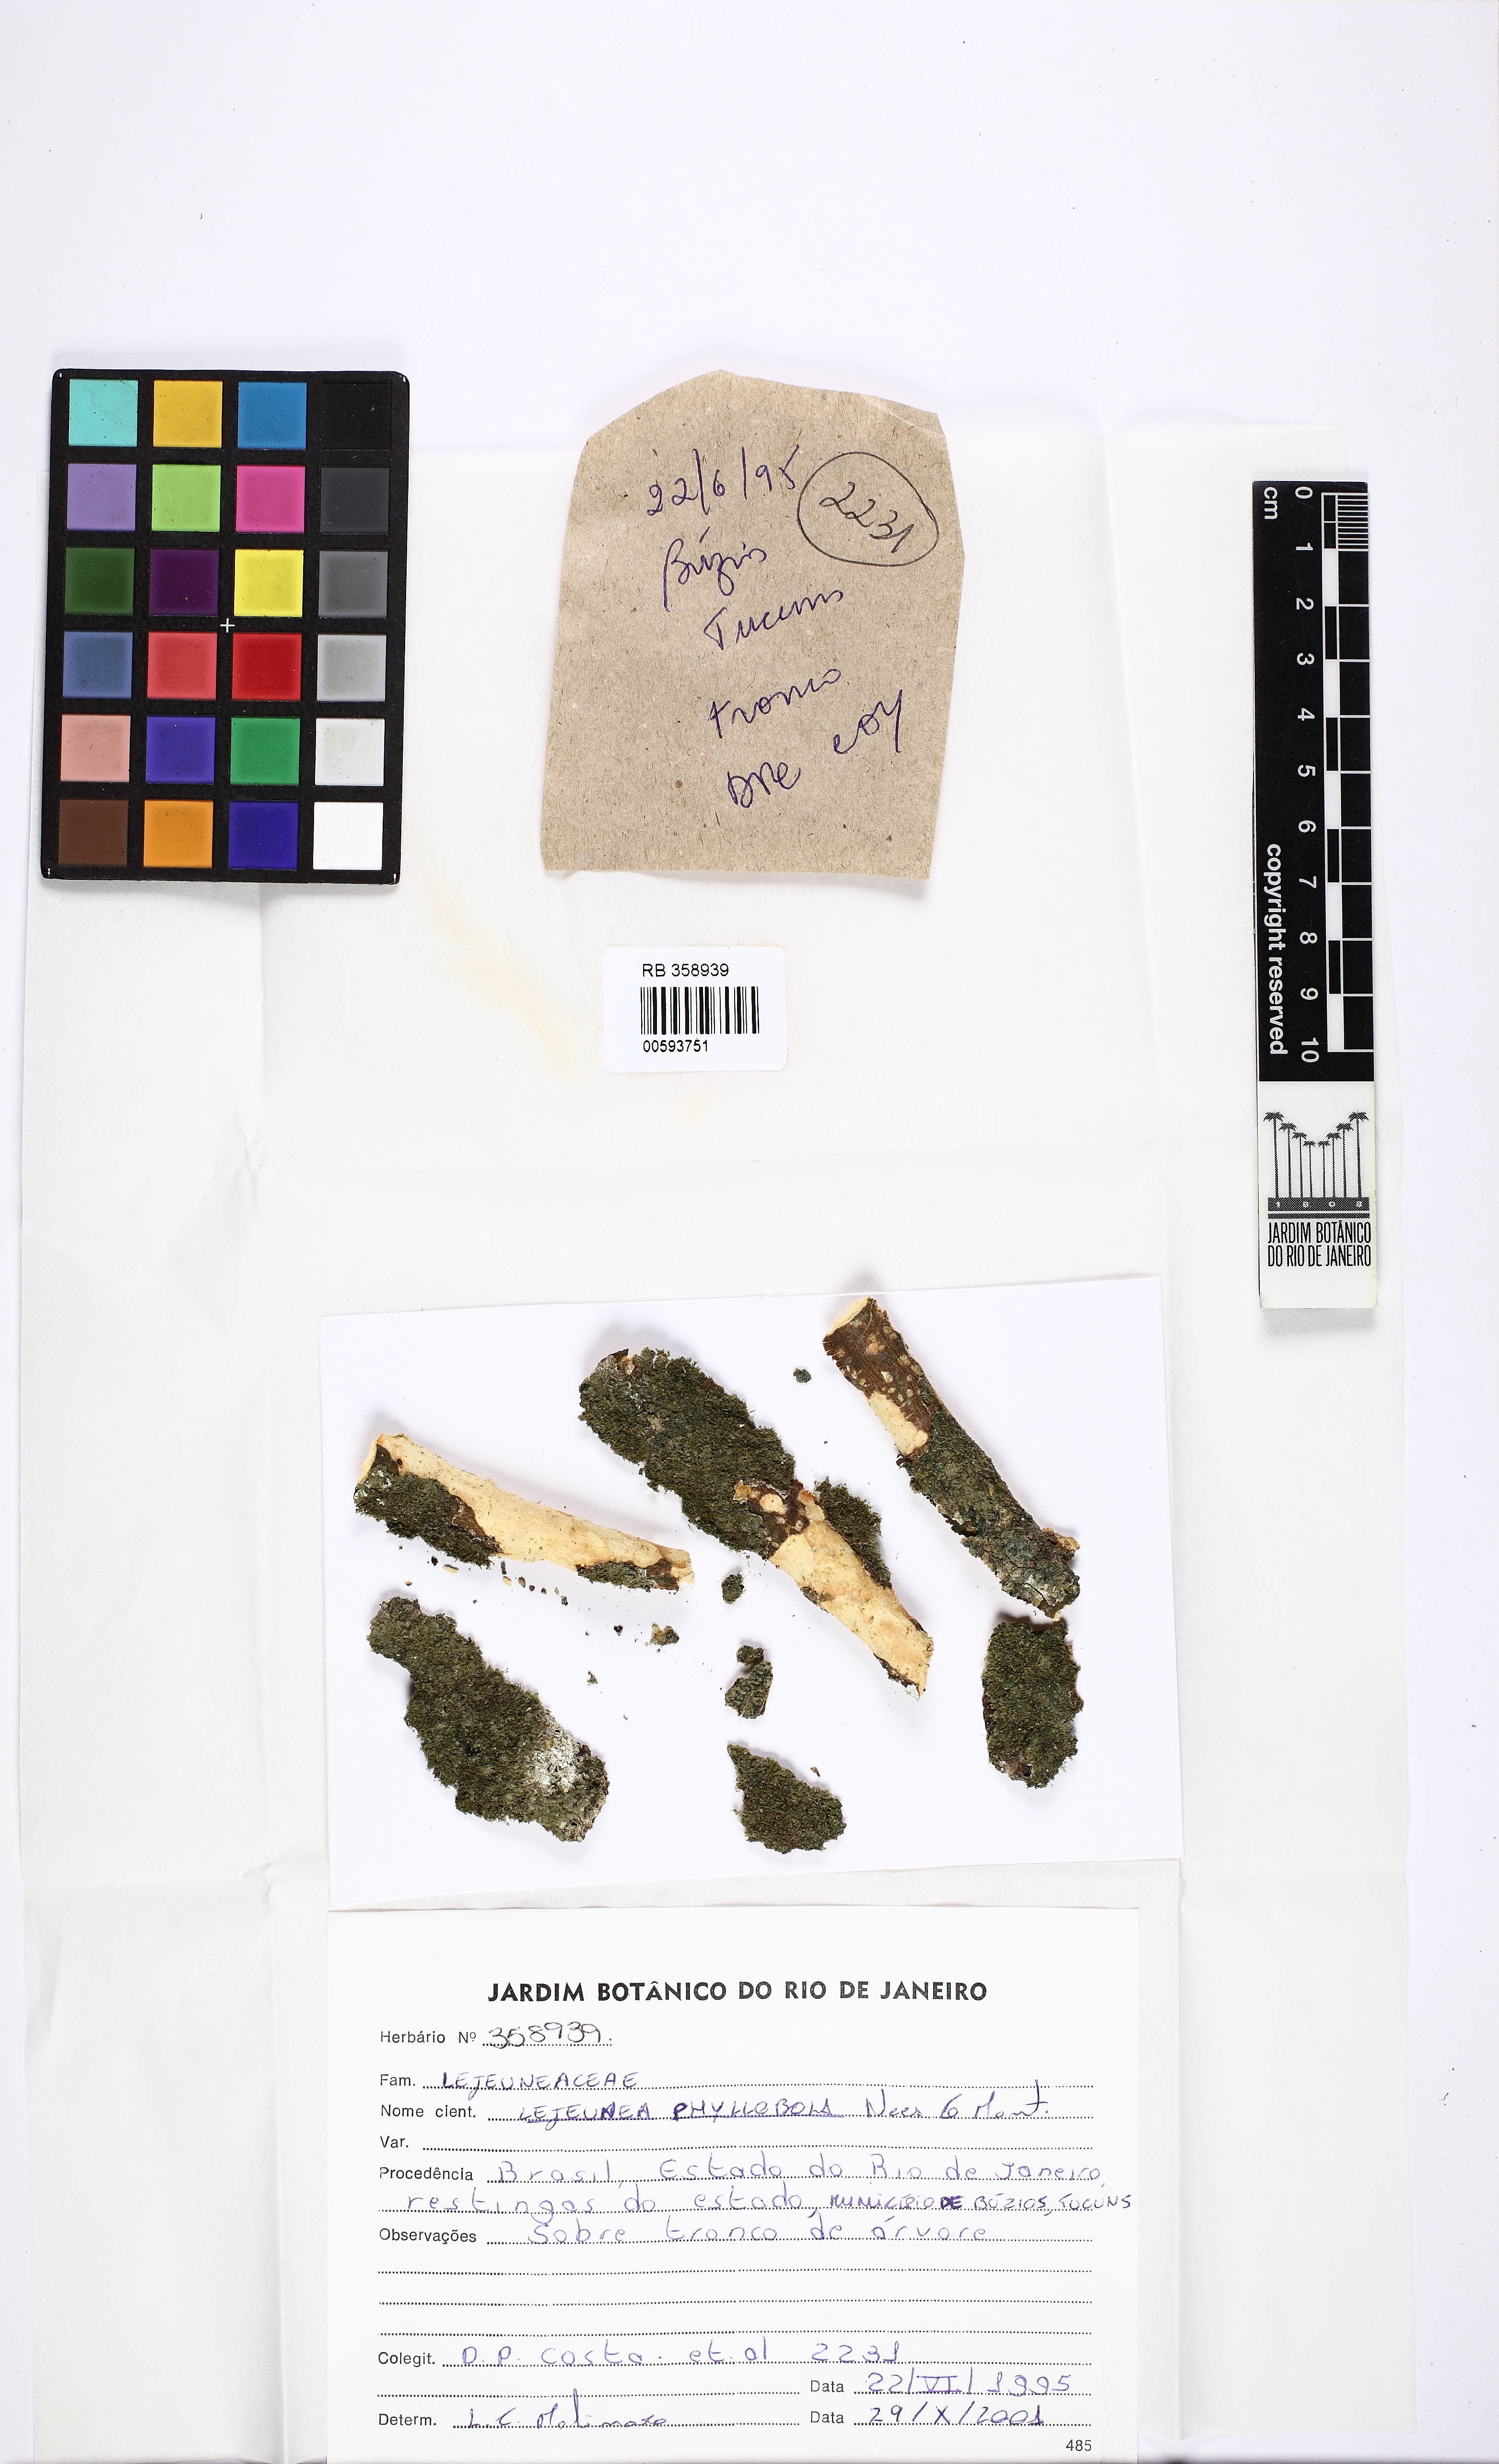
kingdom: Plantae
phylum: Marchantiophyta
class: Jungermanniopsida
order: Porellales
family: Lejeuneaceae
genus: Lejeunea
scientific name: Lejeunea phyllobola
